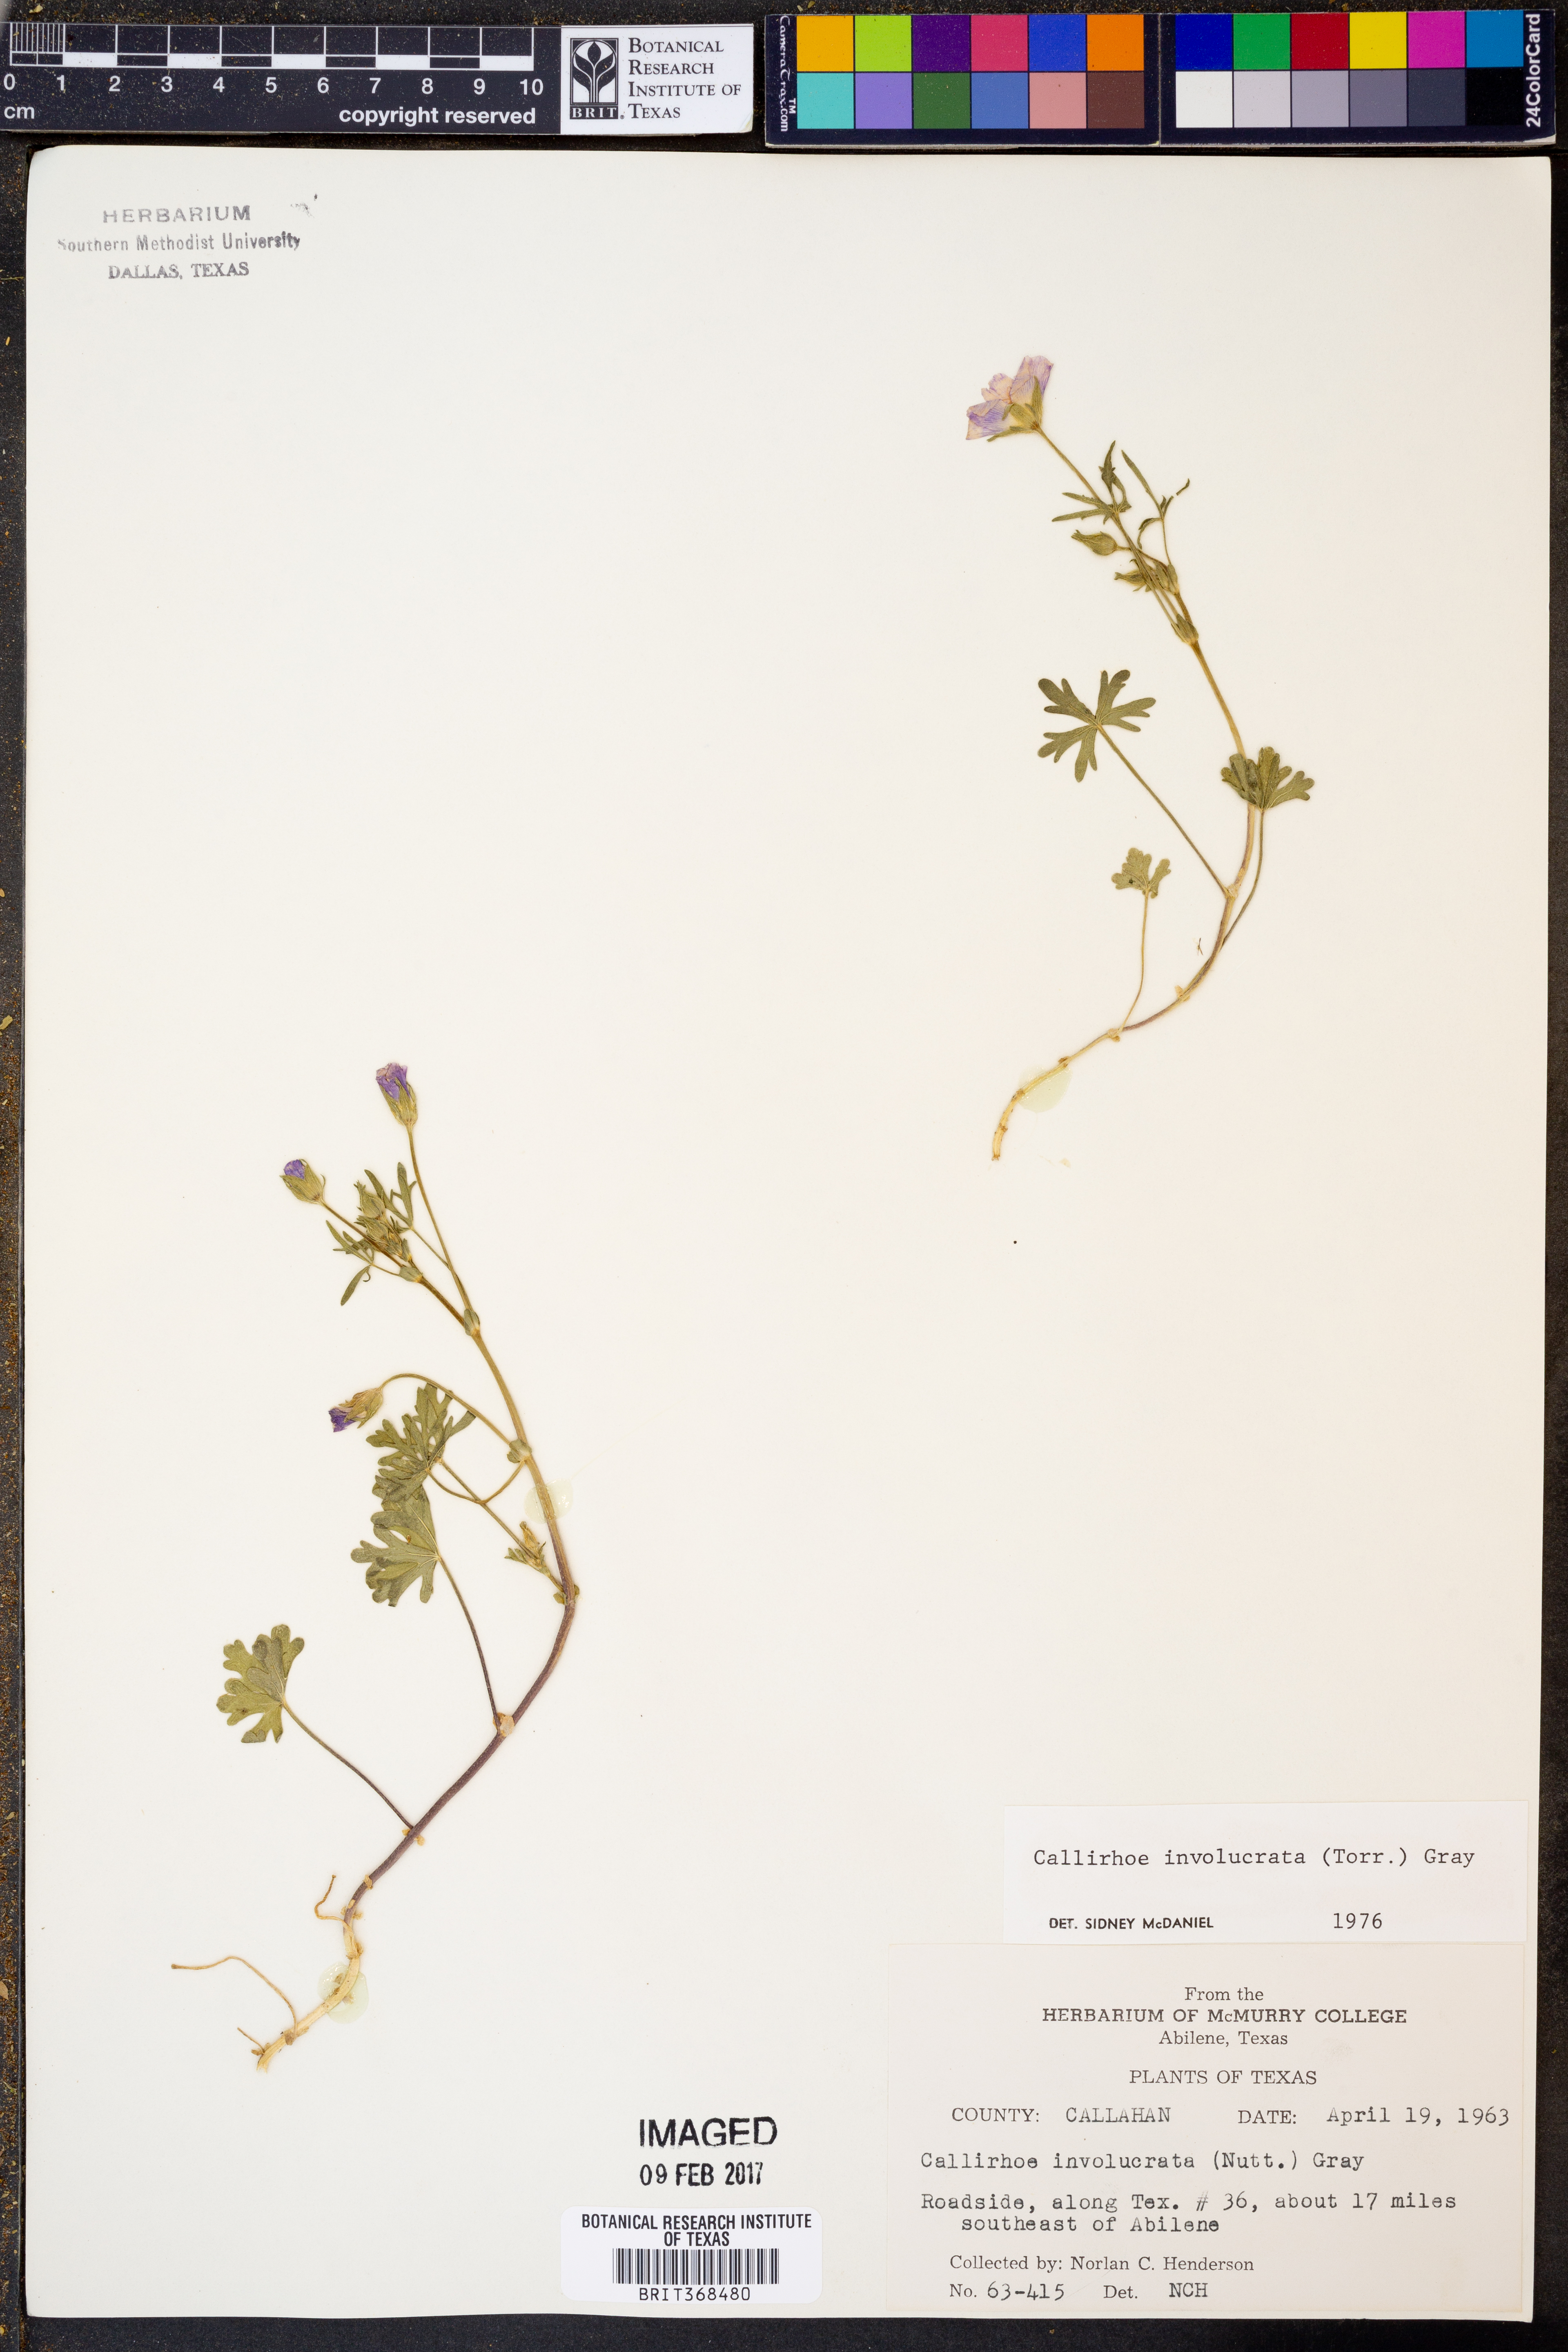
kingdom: Plantae
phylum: Tracheophyta
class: Magnoliopsida
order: Malvales
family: Malvaceae
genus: Callirhoe
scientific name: Callirhoe involucrata
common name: Purple poppy-mallow
